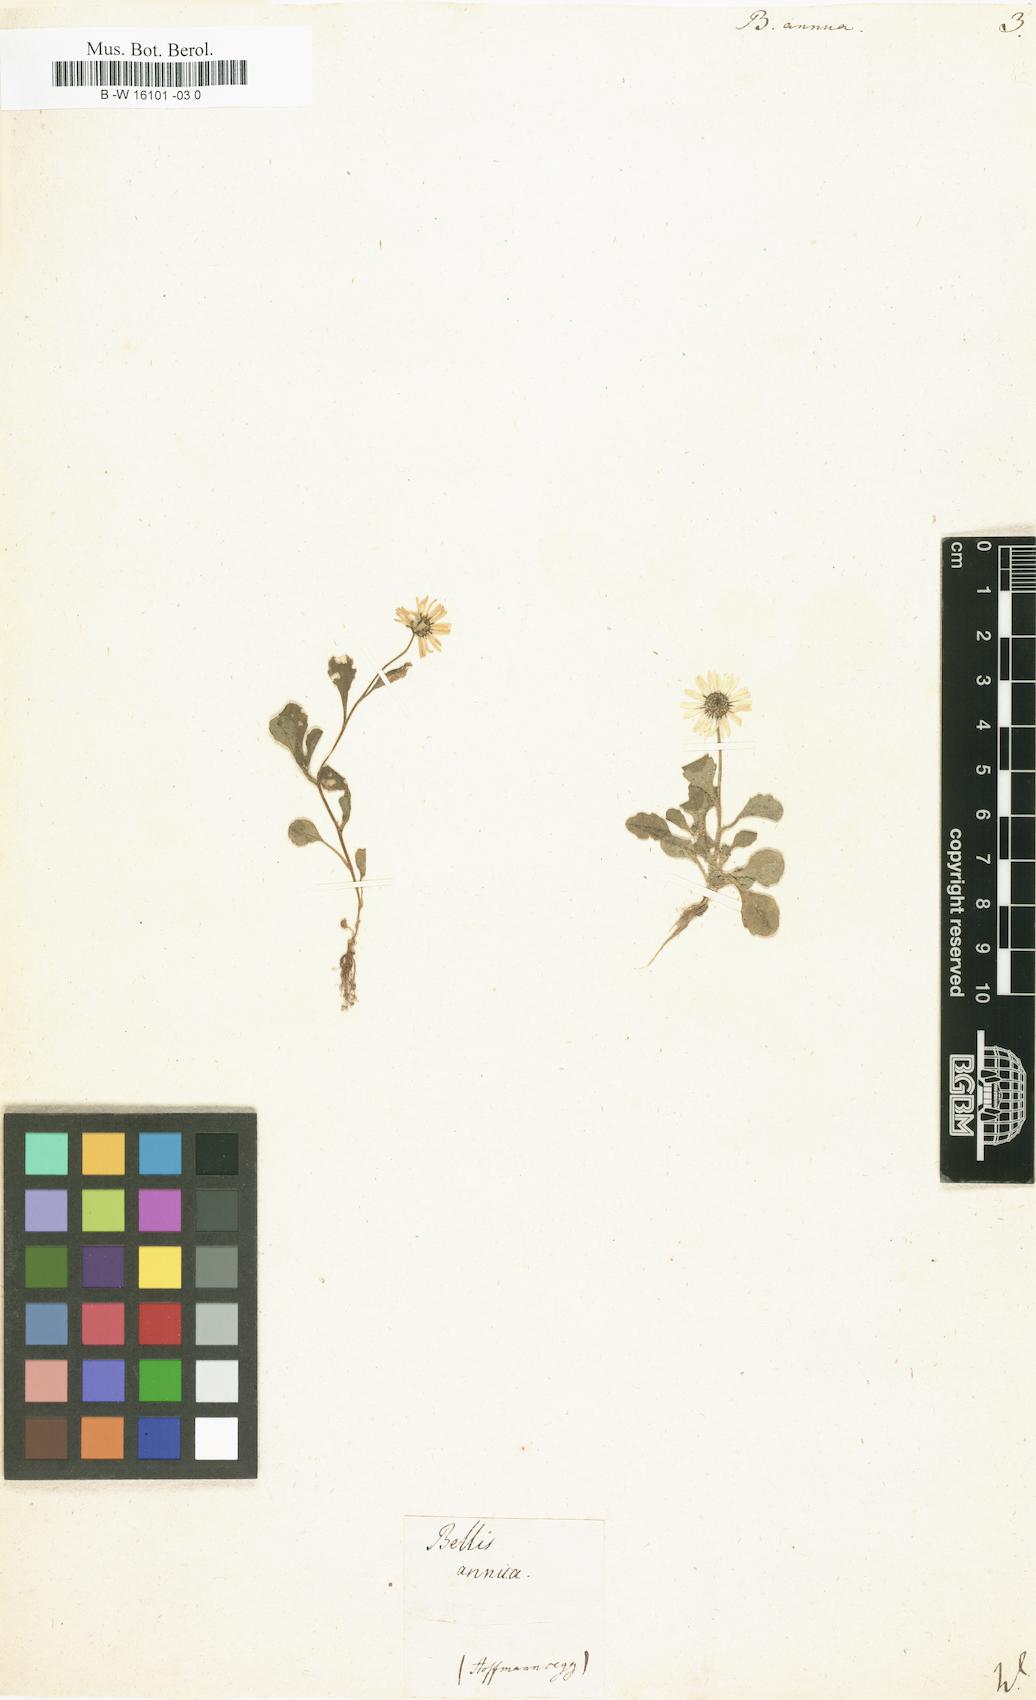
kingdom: Plantae
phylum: Tracheophyta
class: Magnoliopsida
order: Asterales
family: Asteraceae
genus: Bellis
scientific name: Bellis annua
